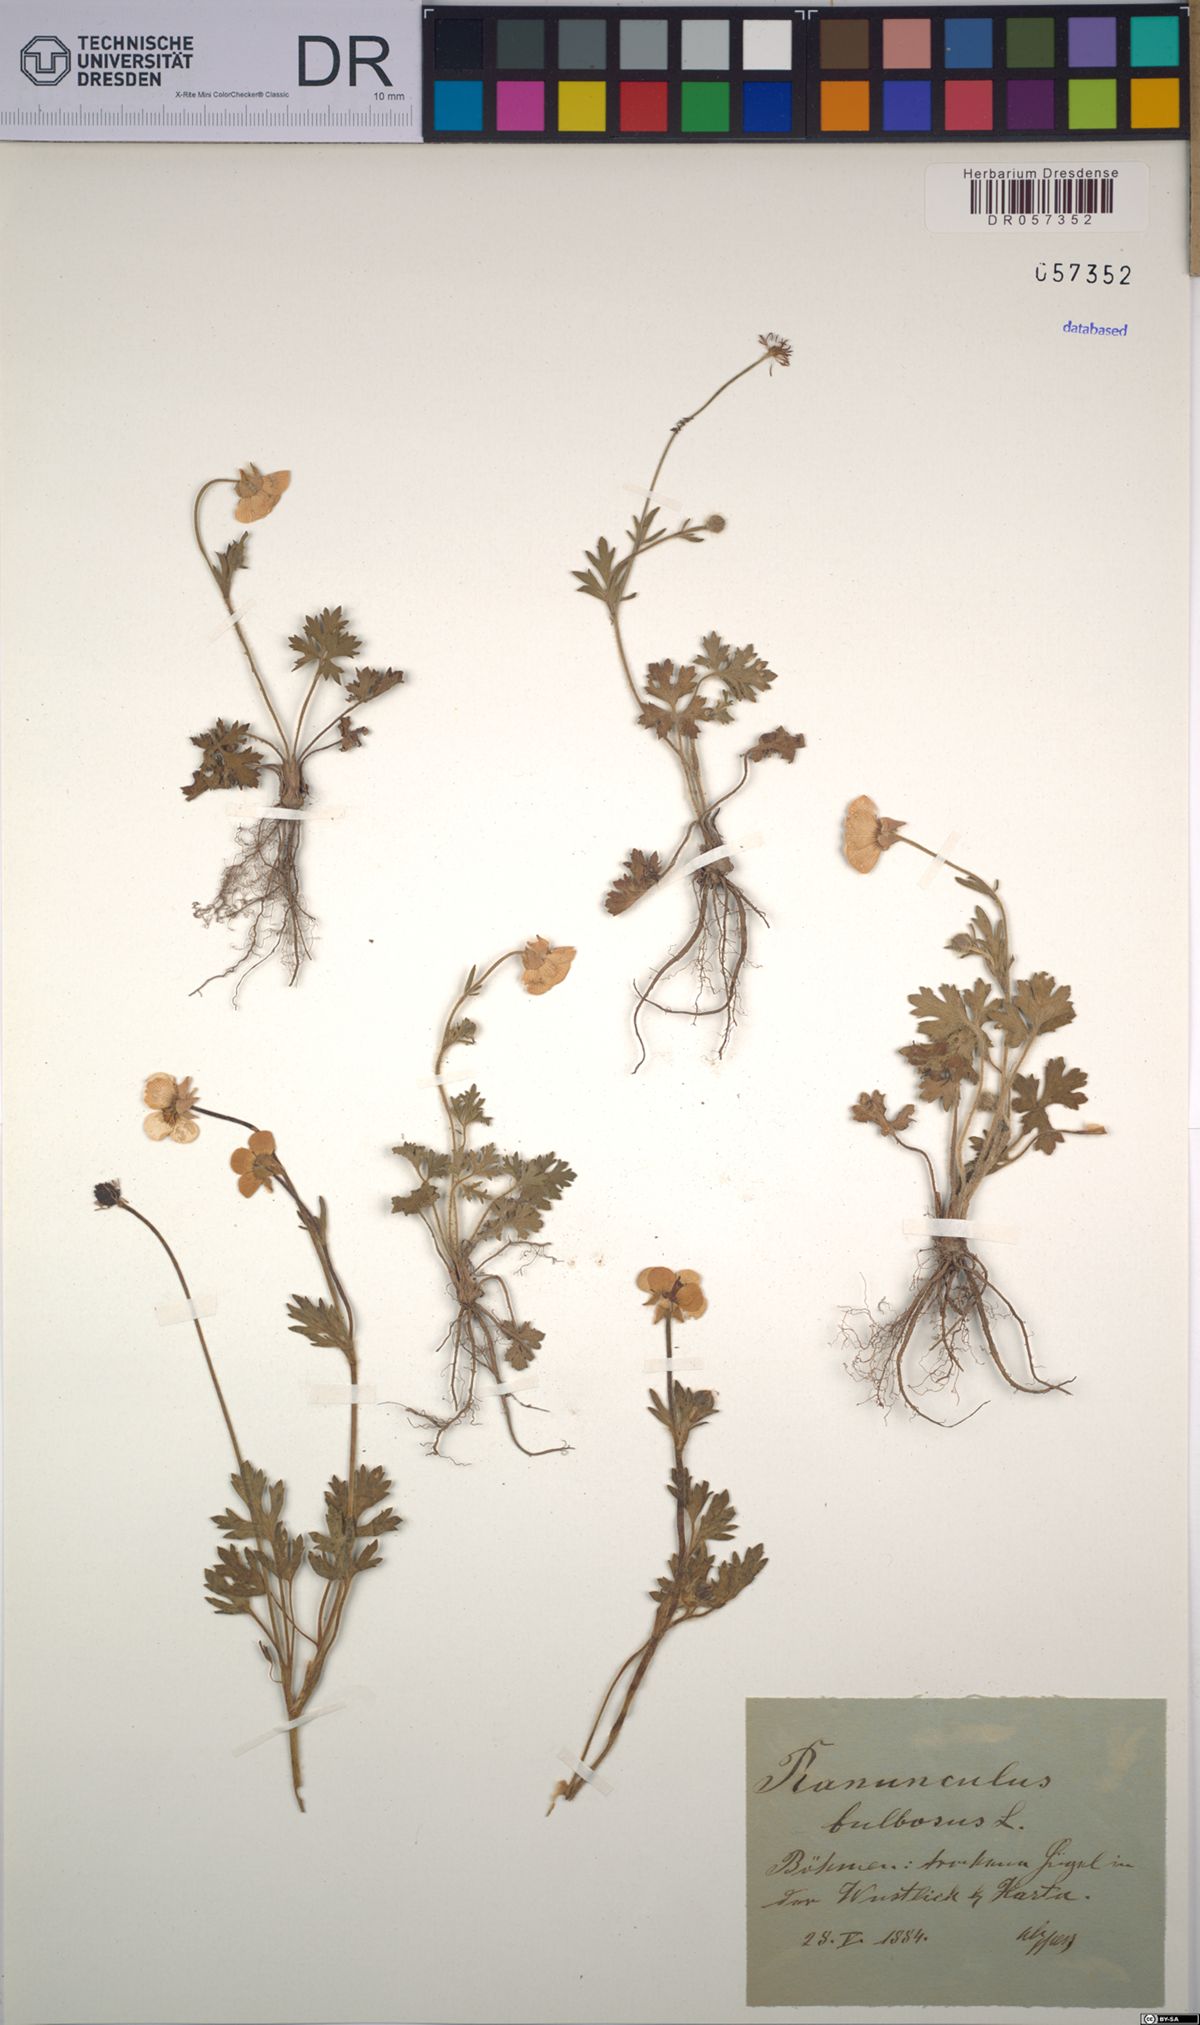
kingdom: Plantae
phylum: Tracheophyta
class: Magnoliopsida
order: Ranunculales
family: Ranunculaceae
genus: Ranunculus
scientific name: Ranunculus bulbosus
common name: Bulbous buttercup
